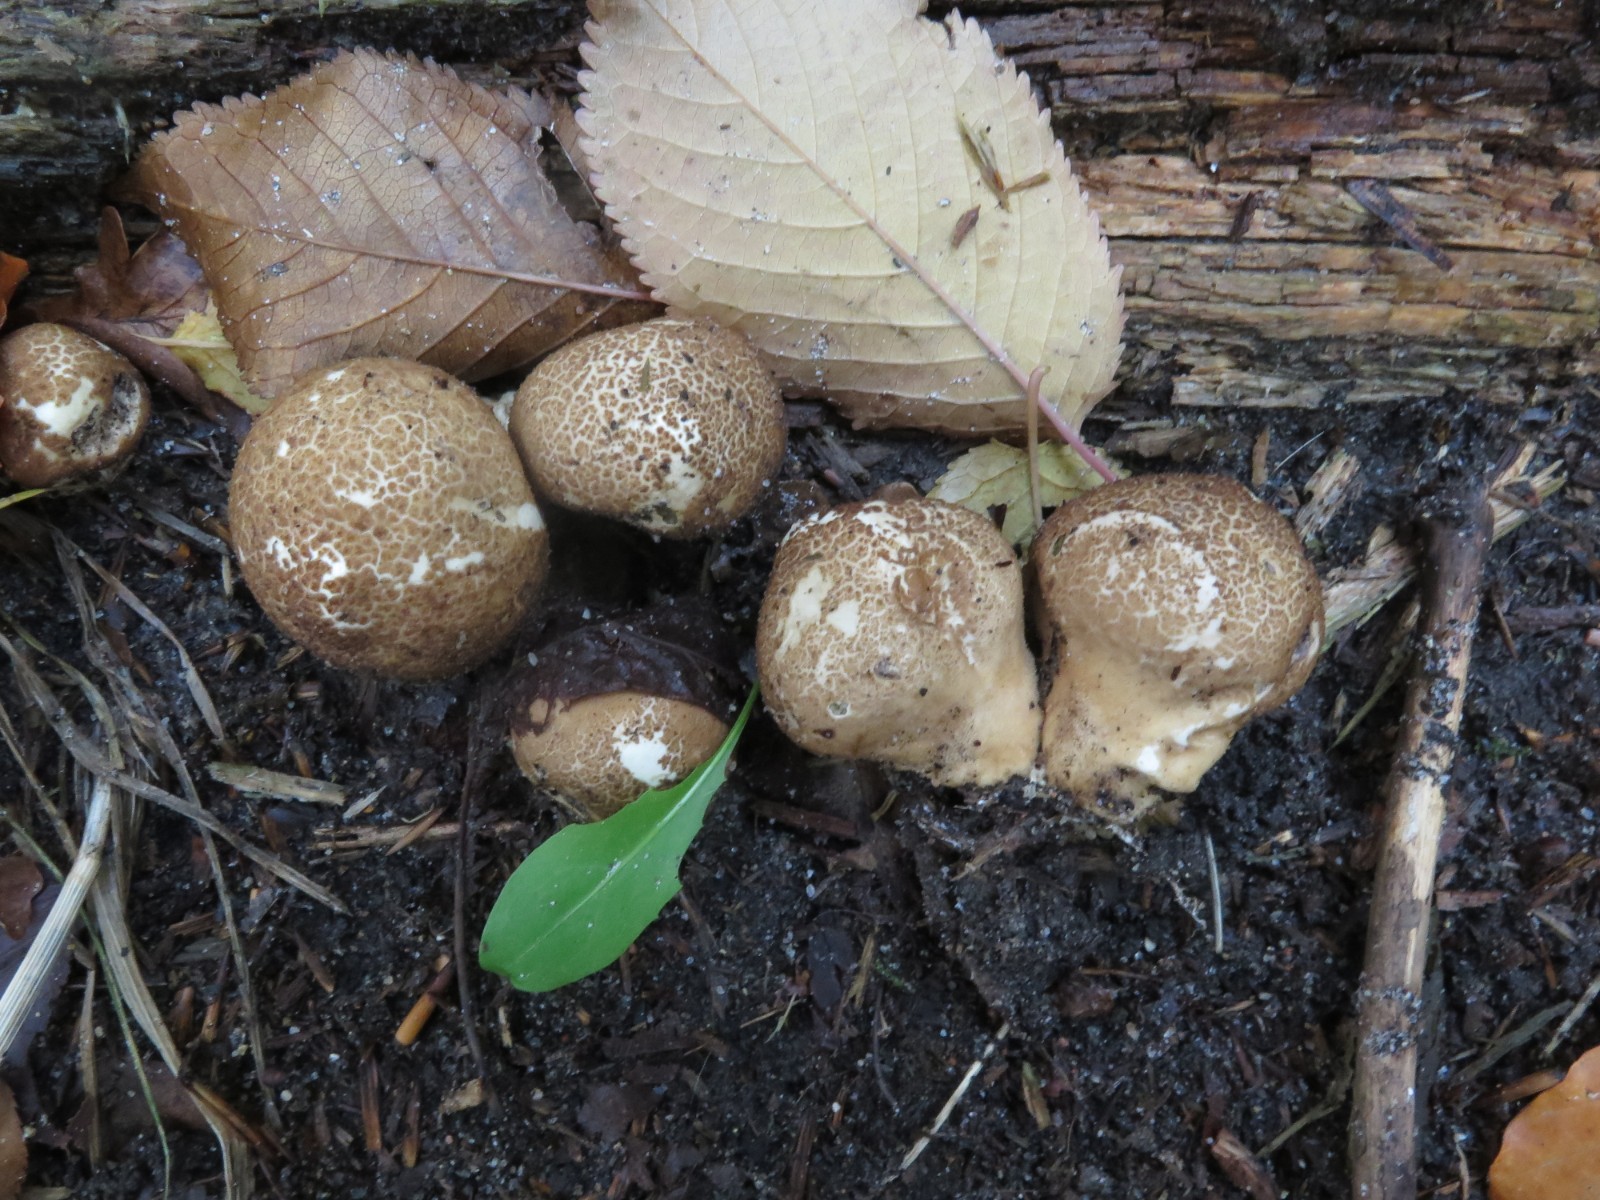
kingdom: Fungi
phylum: Basidiomycota
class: Agaricomycetes
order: Agaricales
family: Lycoperdaceae
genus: Apioperdon
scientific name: Apioperdon pyriforme
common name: pære-støvbold
